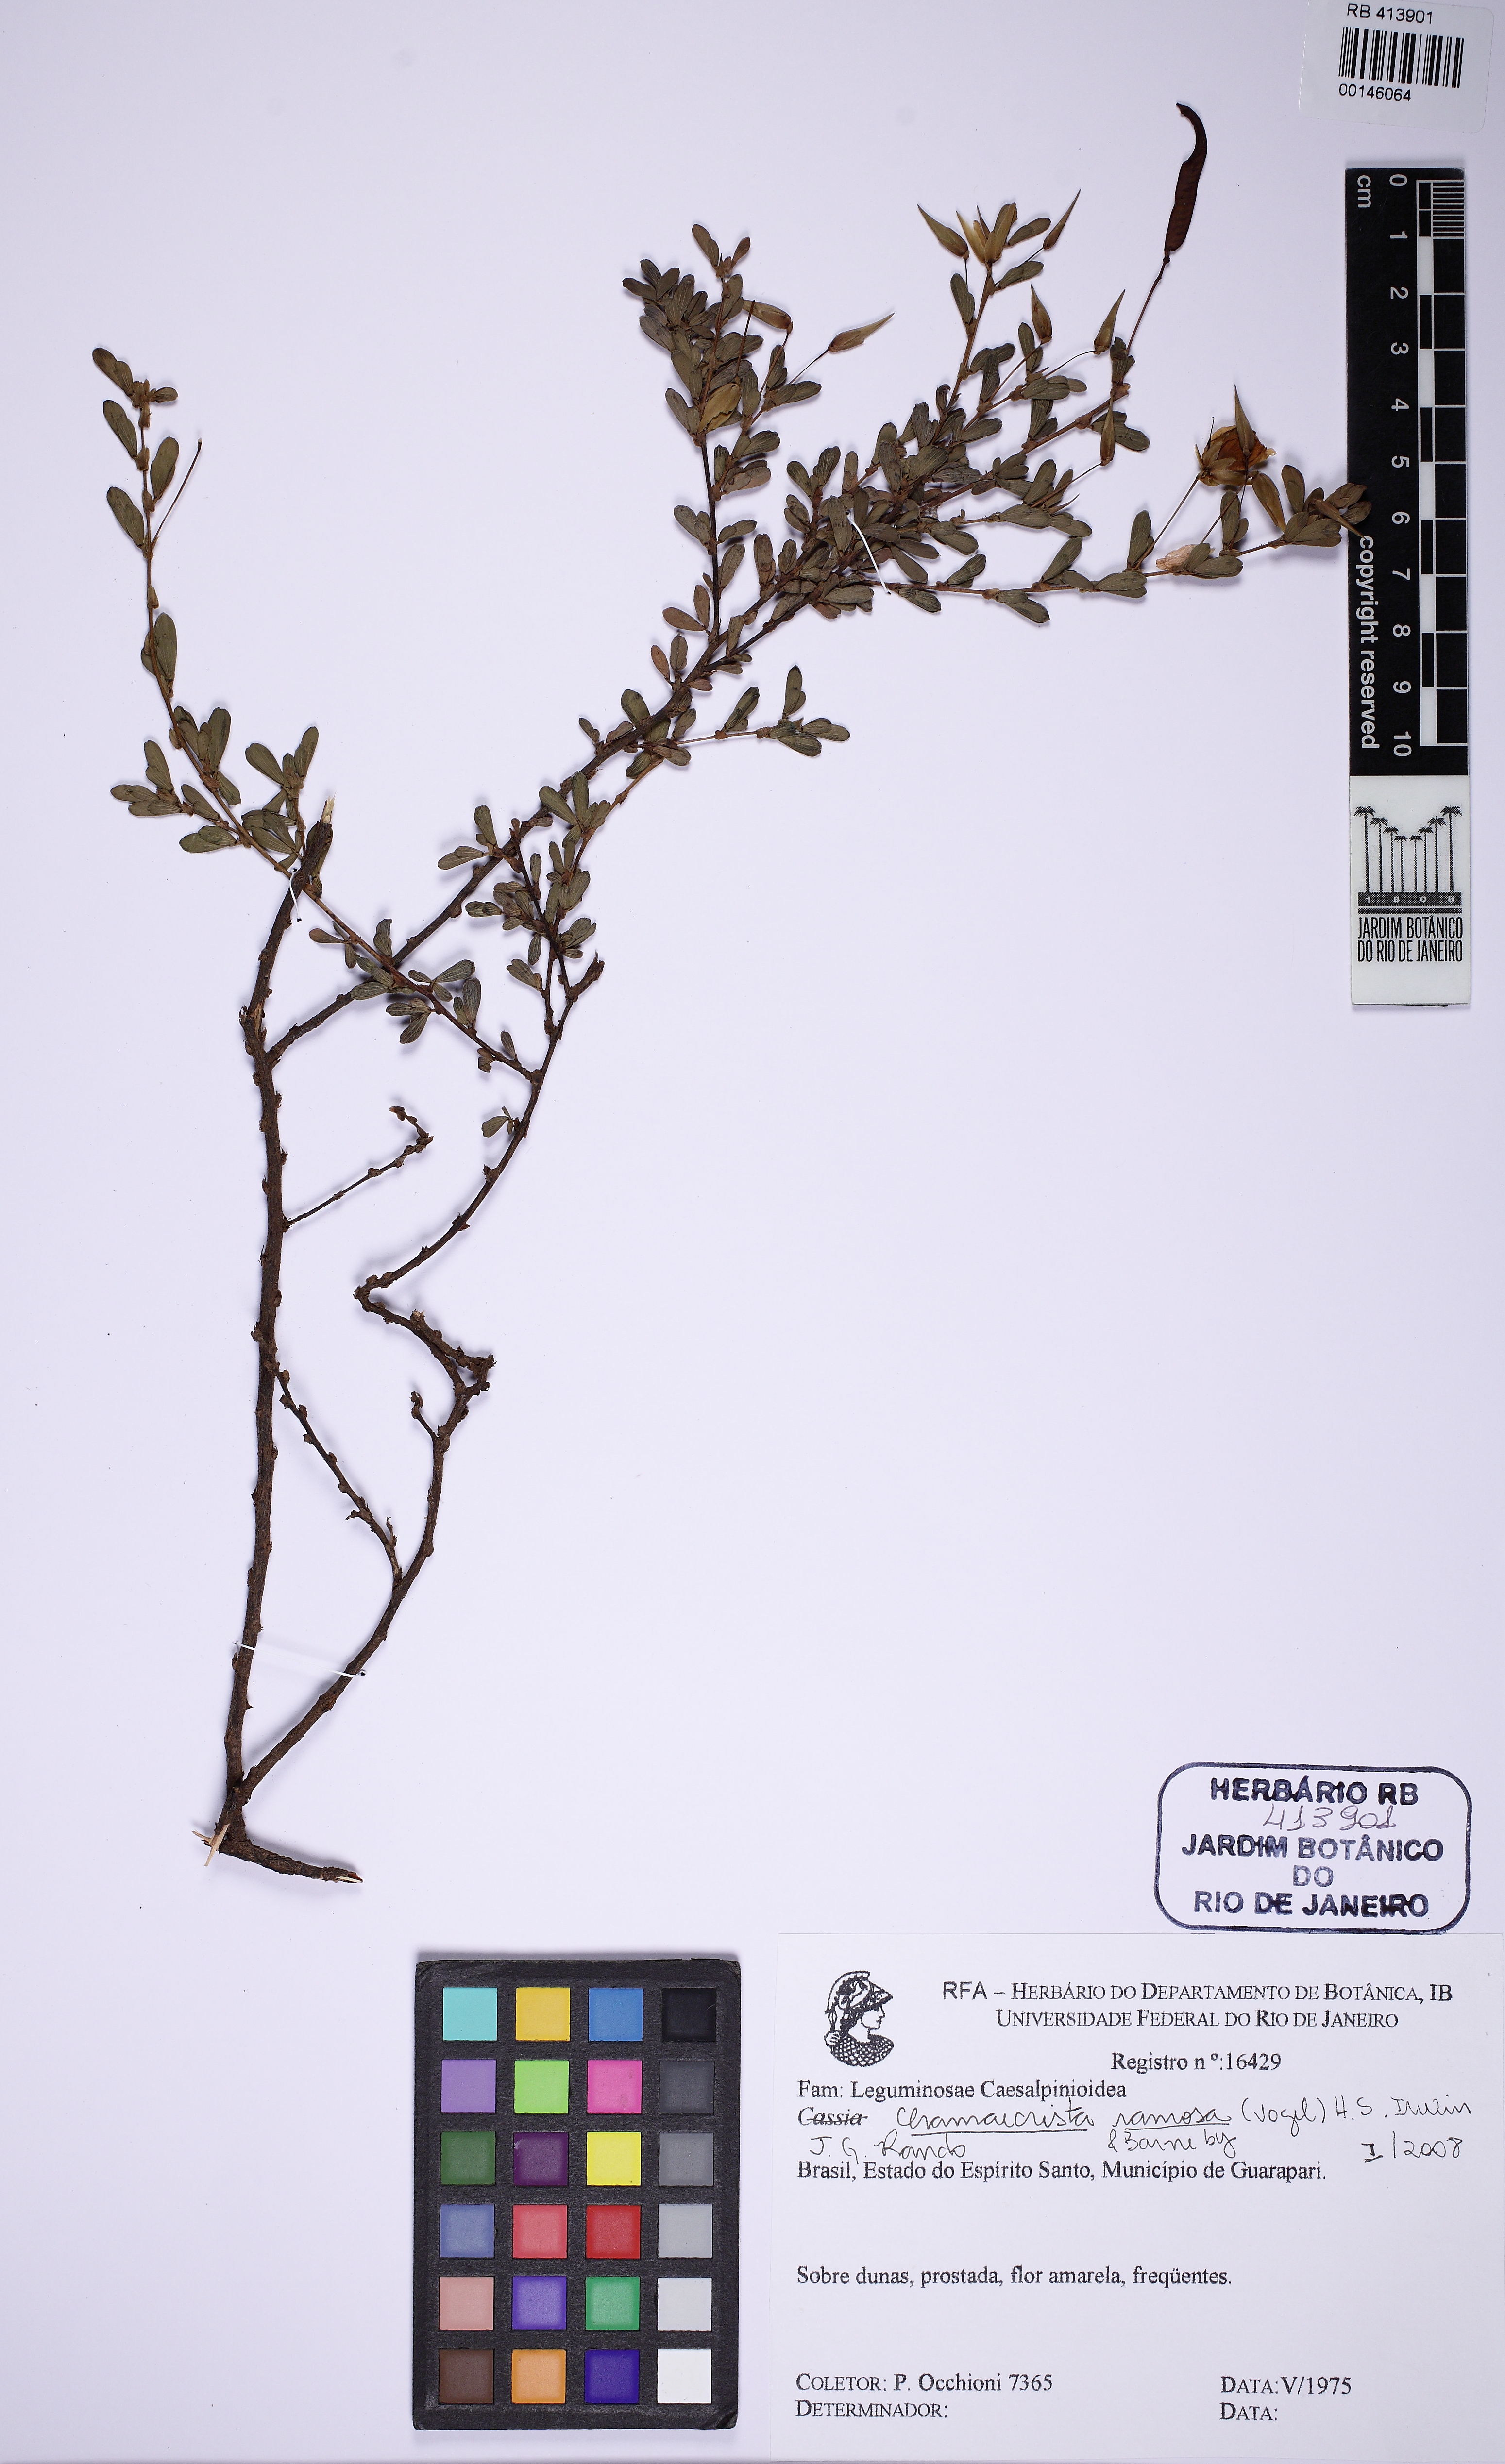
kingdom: Plantae
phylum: Tracheophyta
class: Magnoliopsida
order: Fabales
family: Fabaceae
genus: Chamaecrista
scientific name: Chamaecrista ramosa
